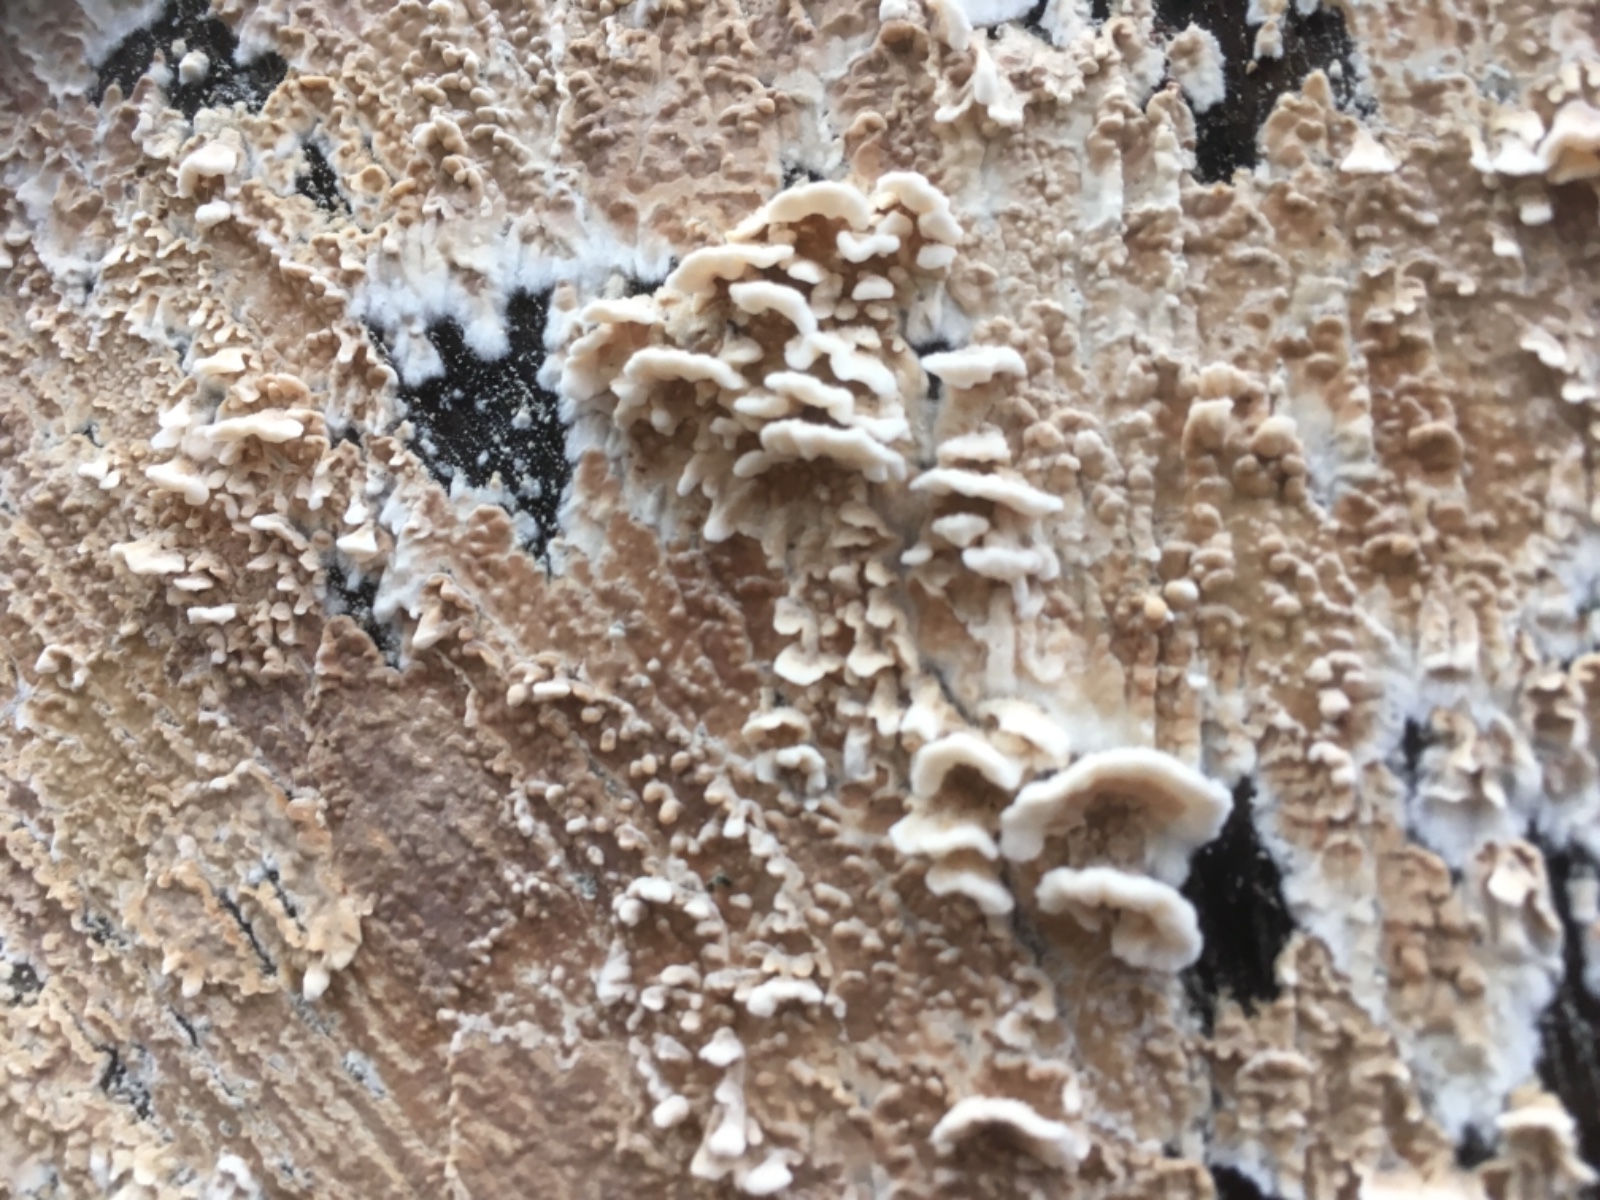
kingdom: Fungi
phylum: Basidiomycota
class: Agaricomycetes
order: Agaricales
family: Physalacriaceae
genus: Cylindrobasidium
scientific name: Cylindrobasidium evolvens
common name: sprækkehinde
